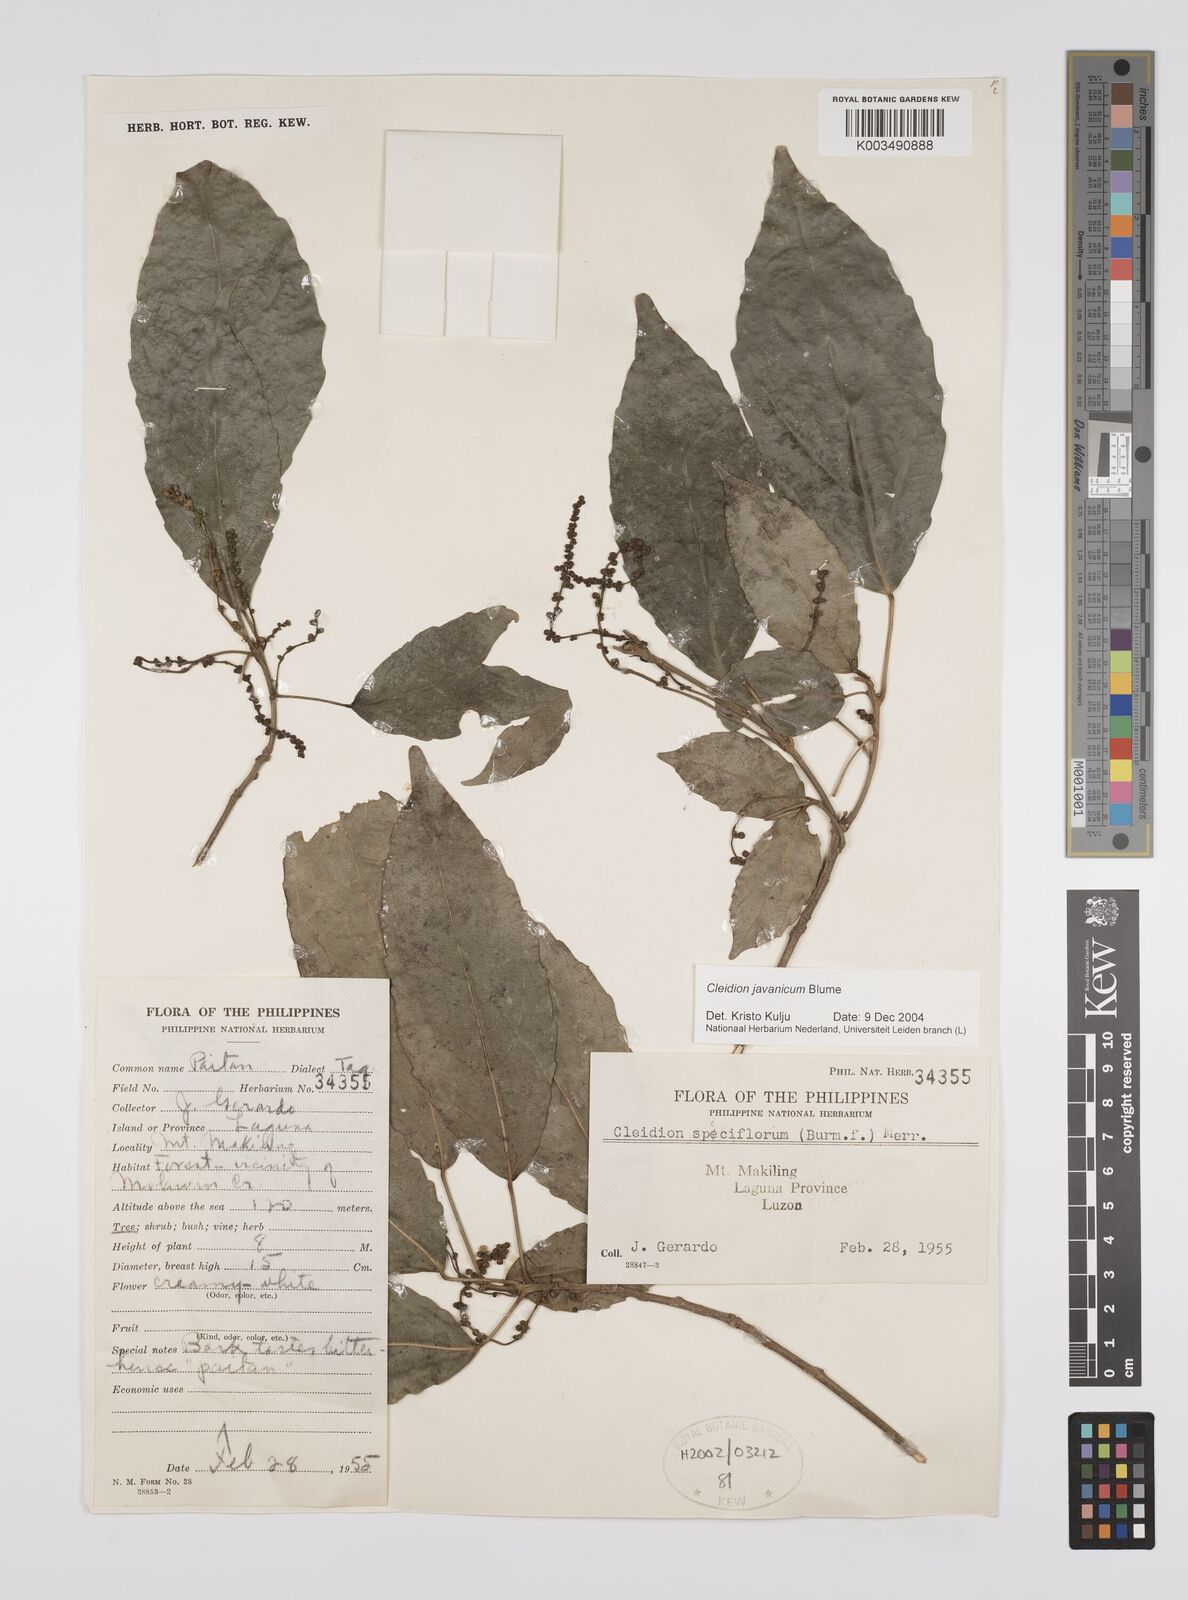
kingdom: Plantae
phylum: Tracheophyta
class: Magnoliopsida
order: Malpighiales
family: Euphorbiaceae
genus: Cleidion
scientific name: Cleidion javanicum
